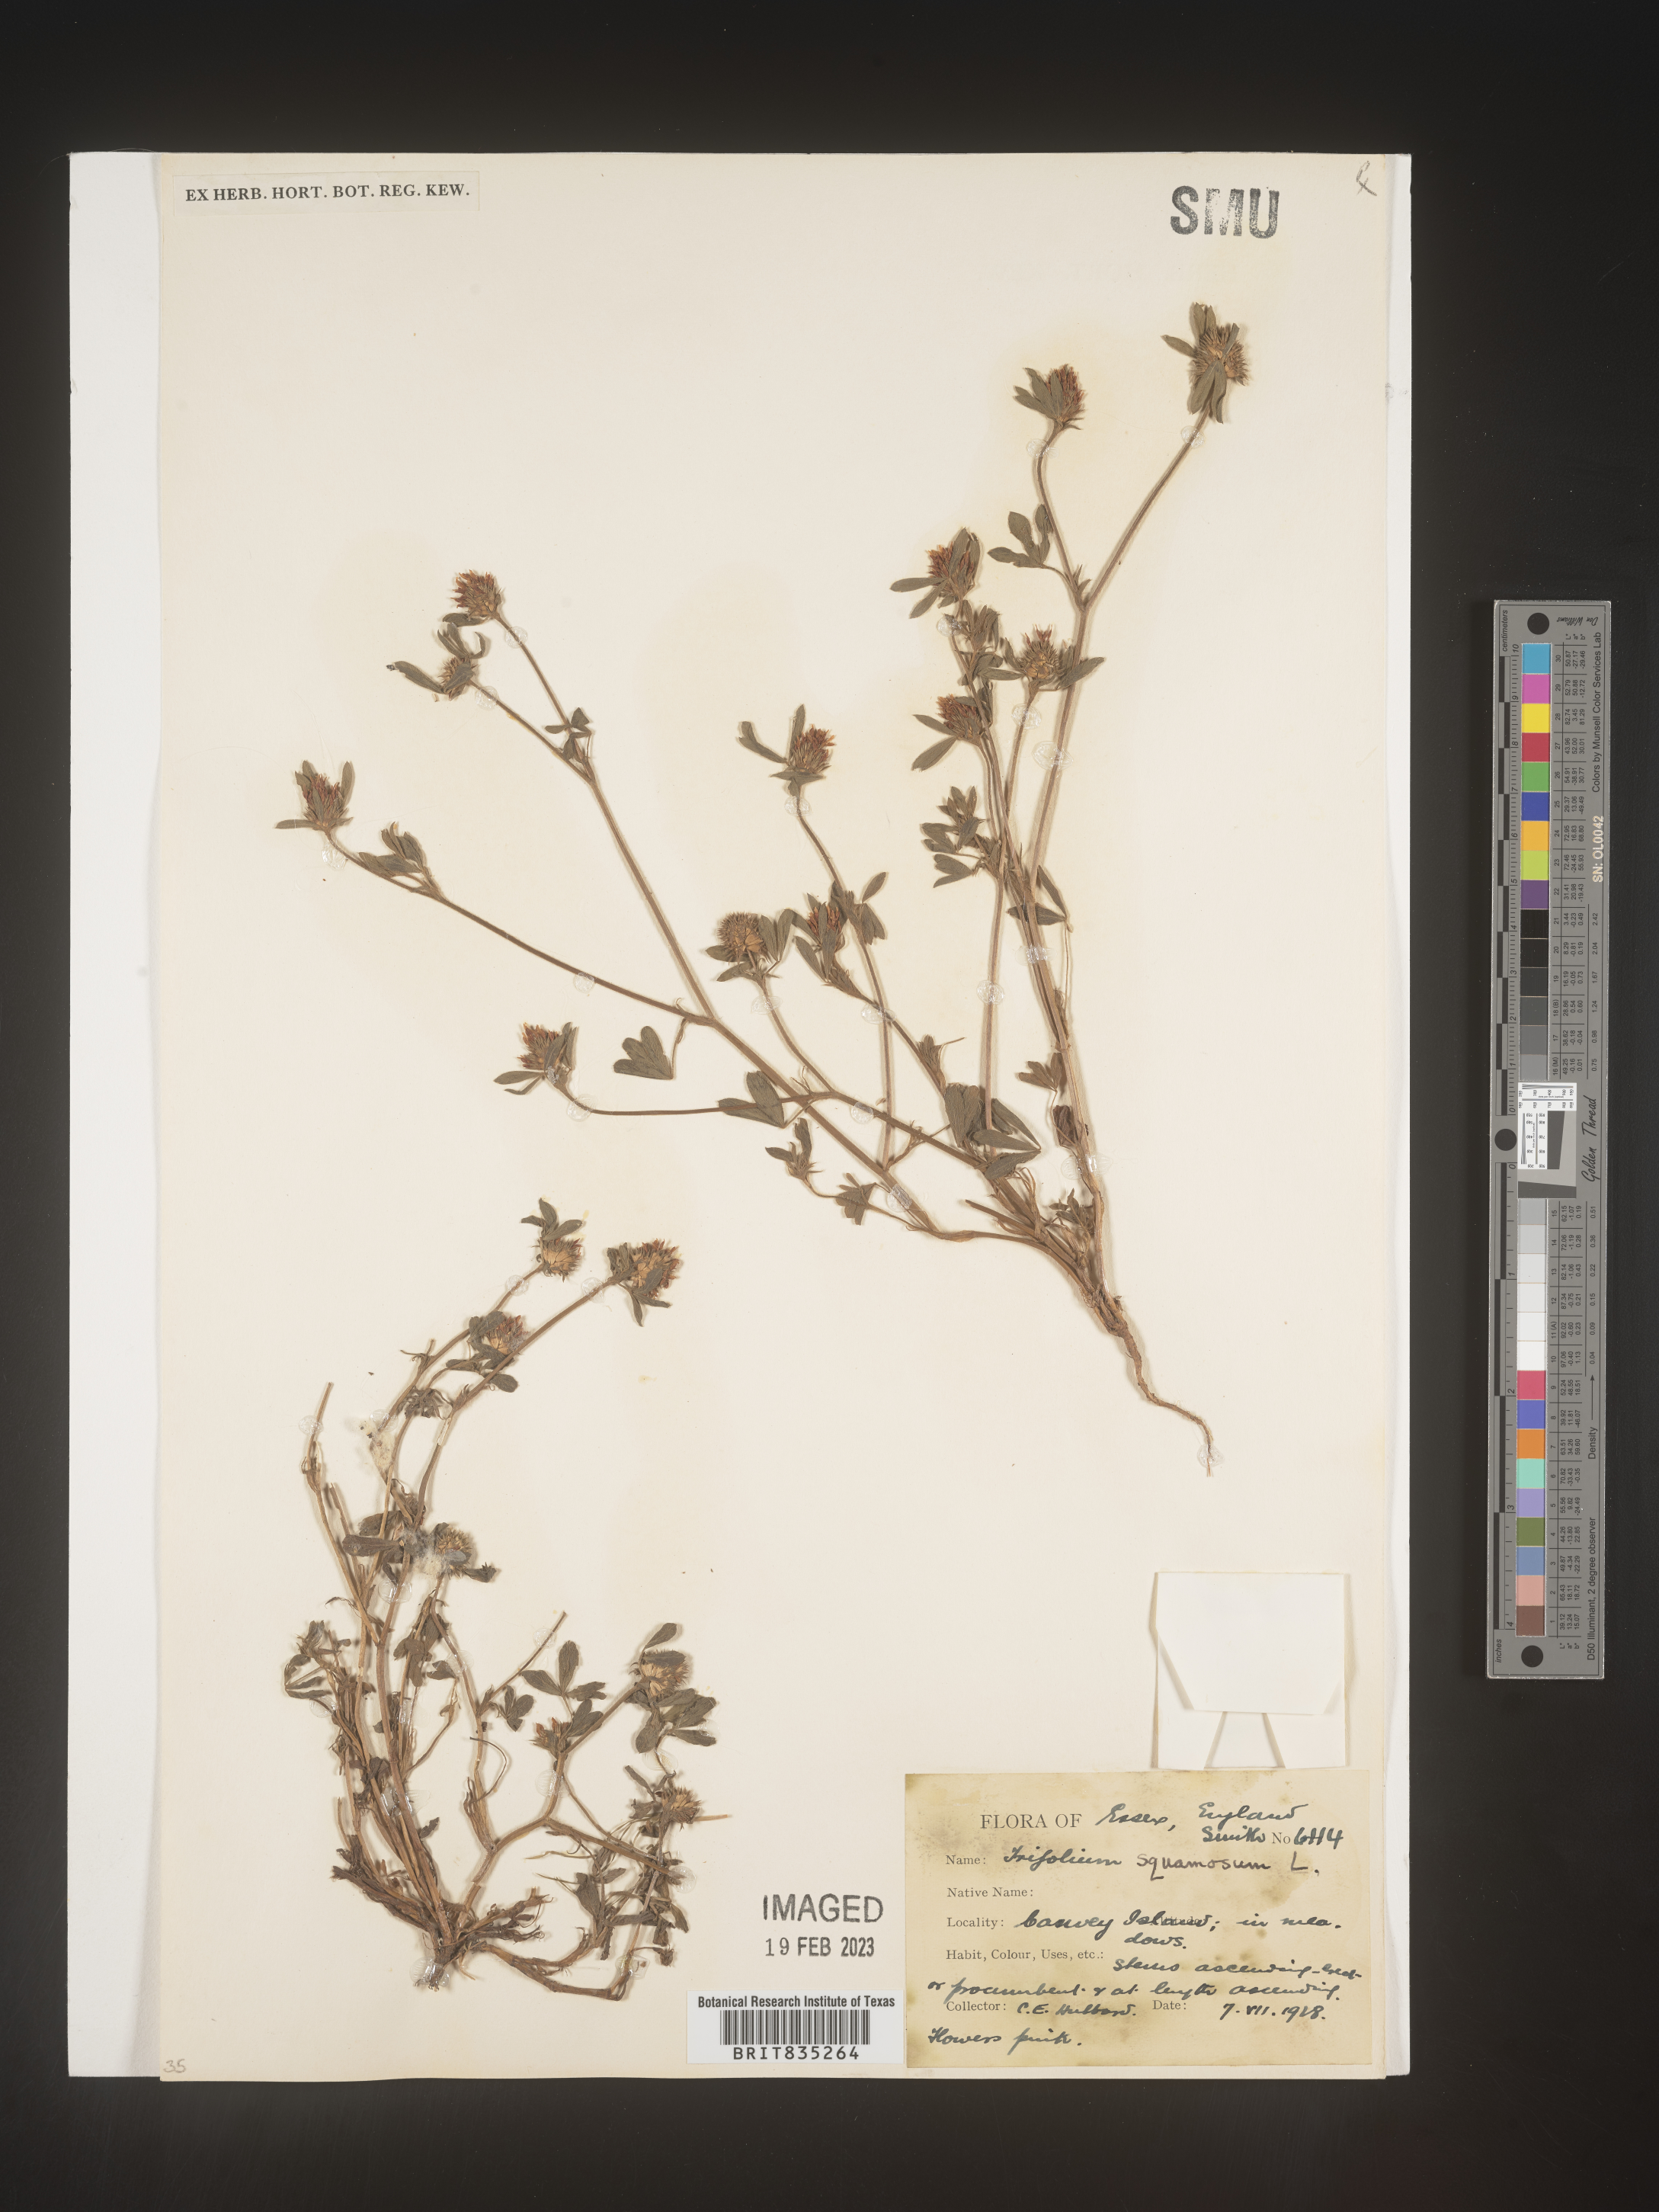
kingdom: Plantae
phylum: Tracheophyta
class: Magnoliopsida
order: Fabales
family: Fabaceae
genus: Trifolium
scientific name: Trifolium
